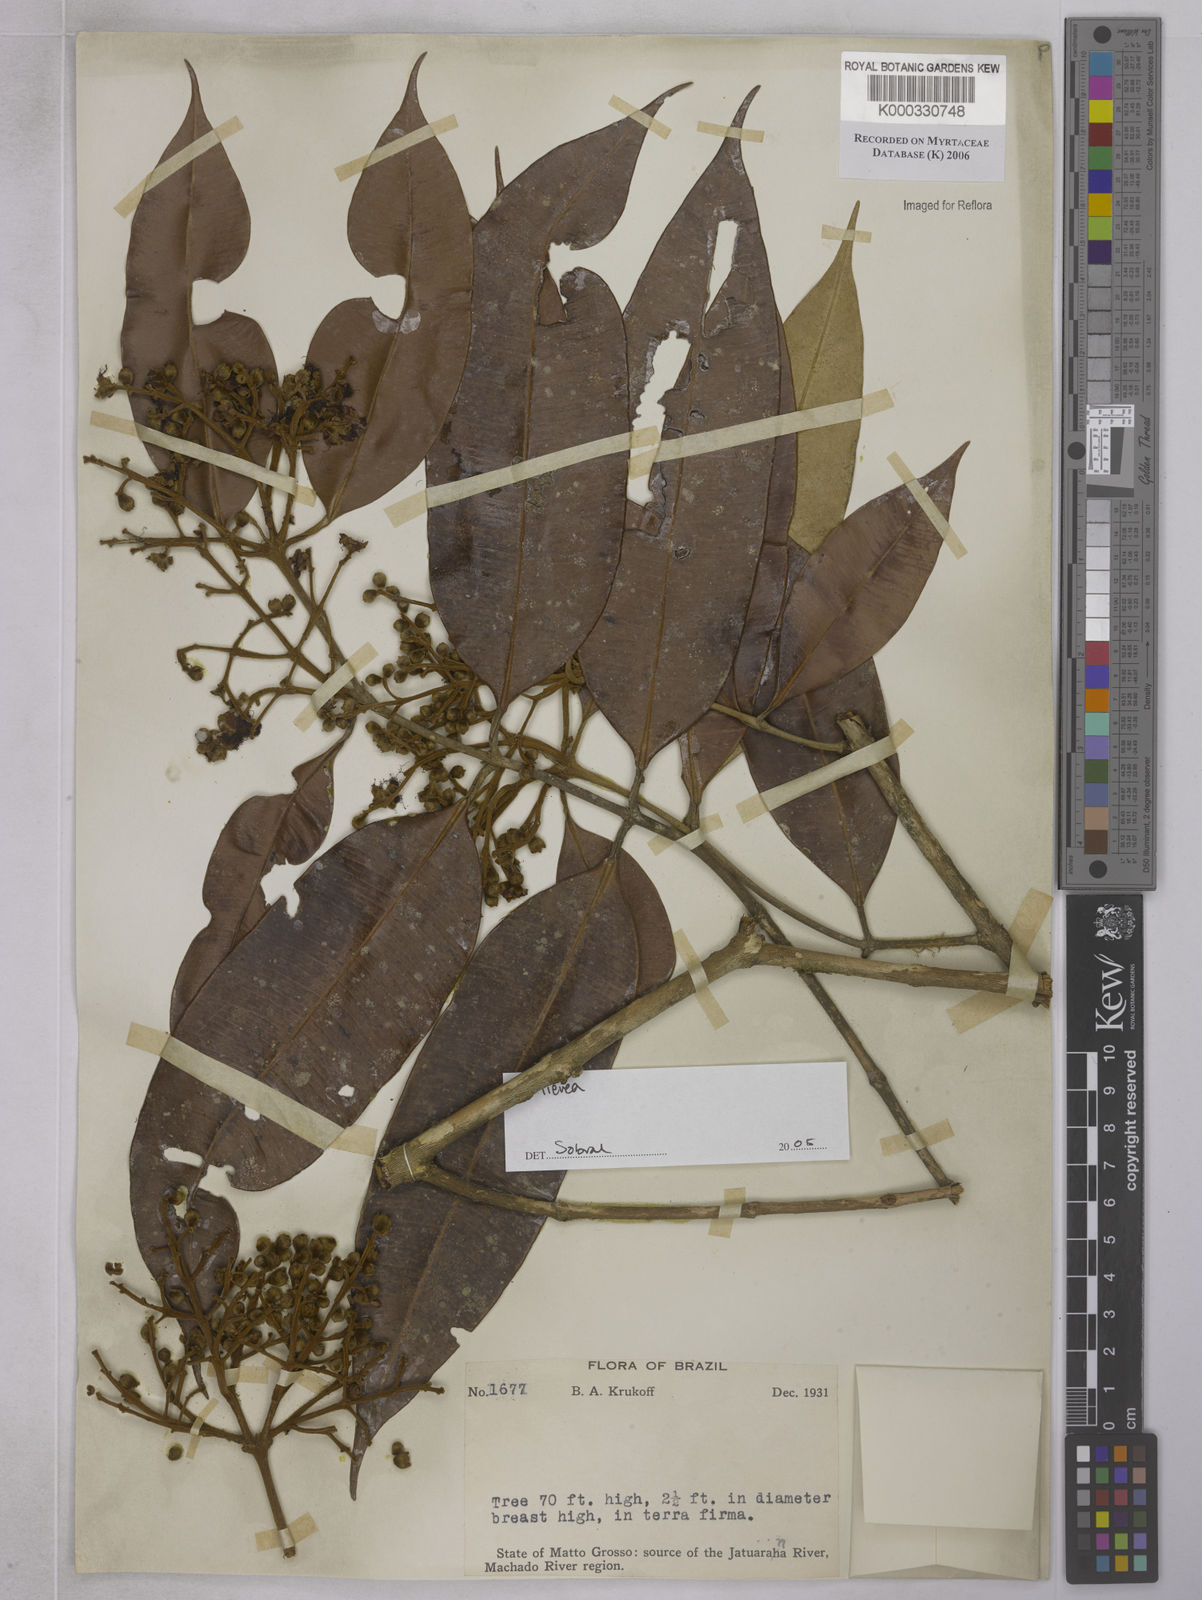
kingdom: Plantae
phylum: Tracheophyta
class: Magnoliopsida
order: Myrtales
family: Myrtaceae
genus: Marlierea
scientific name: Marlierea
